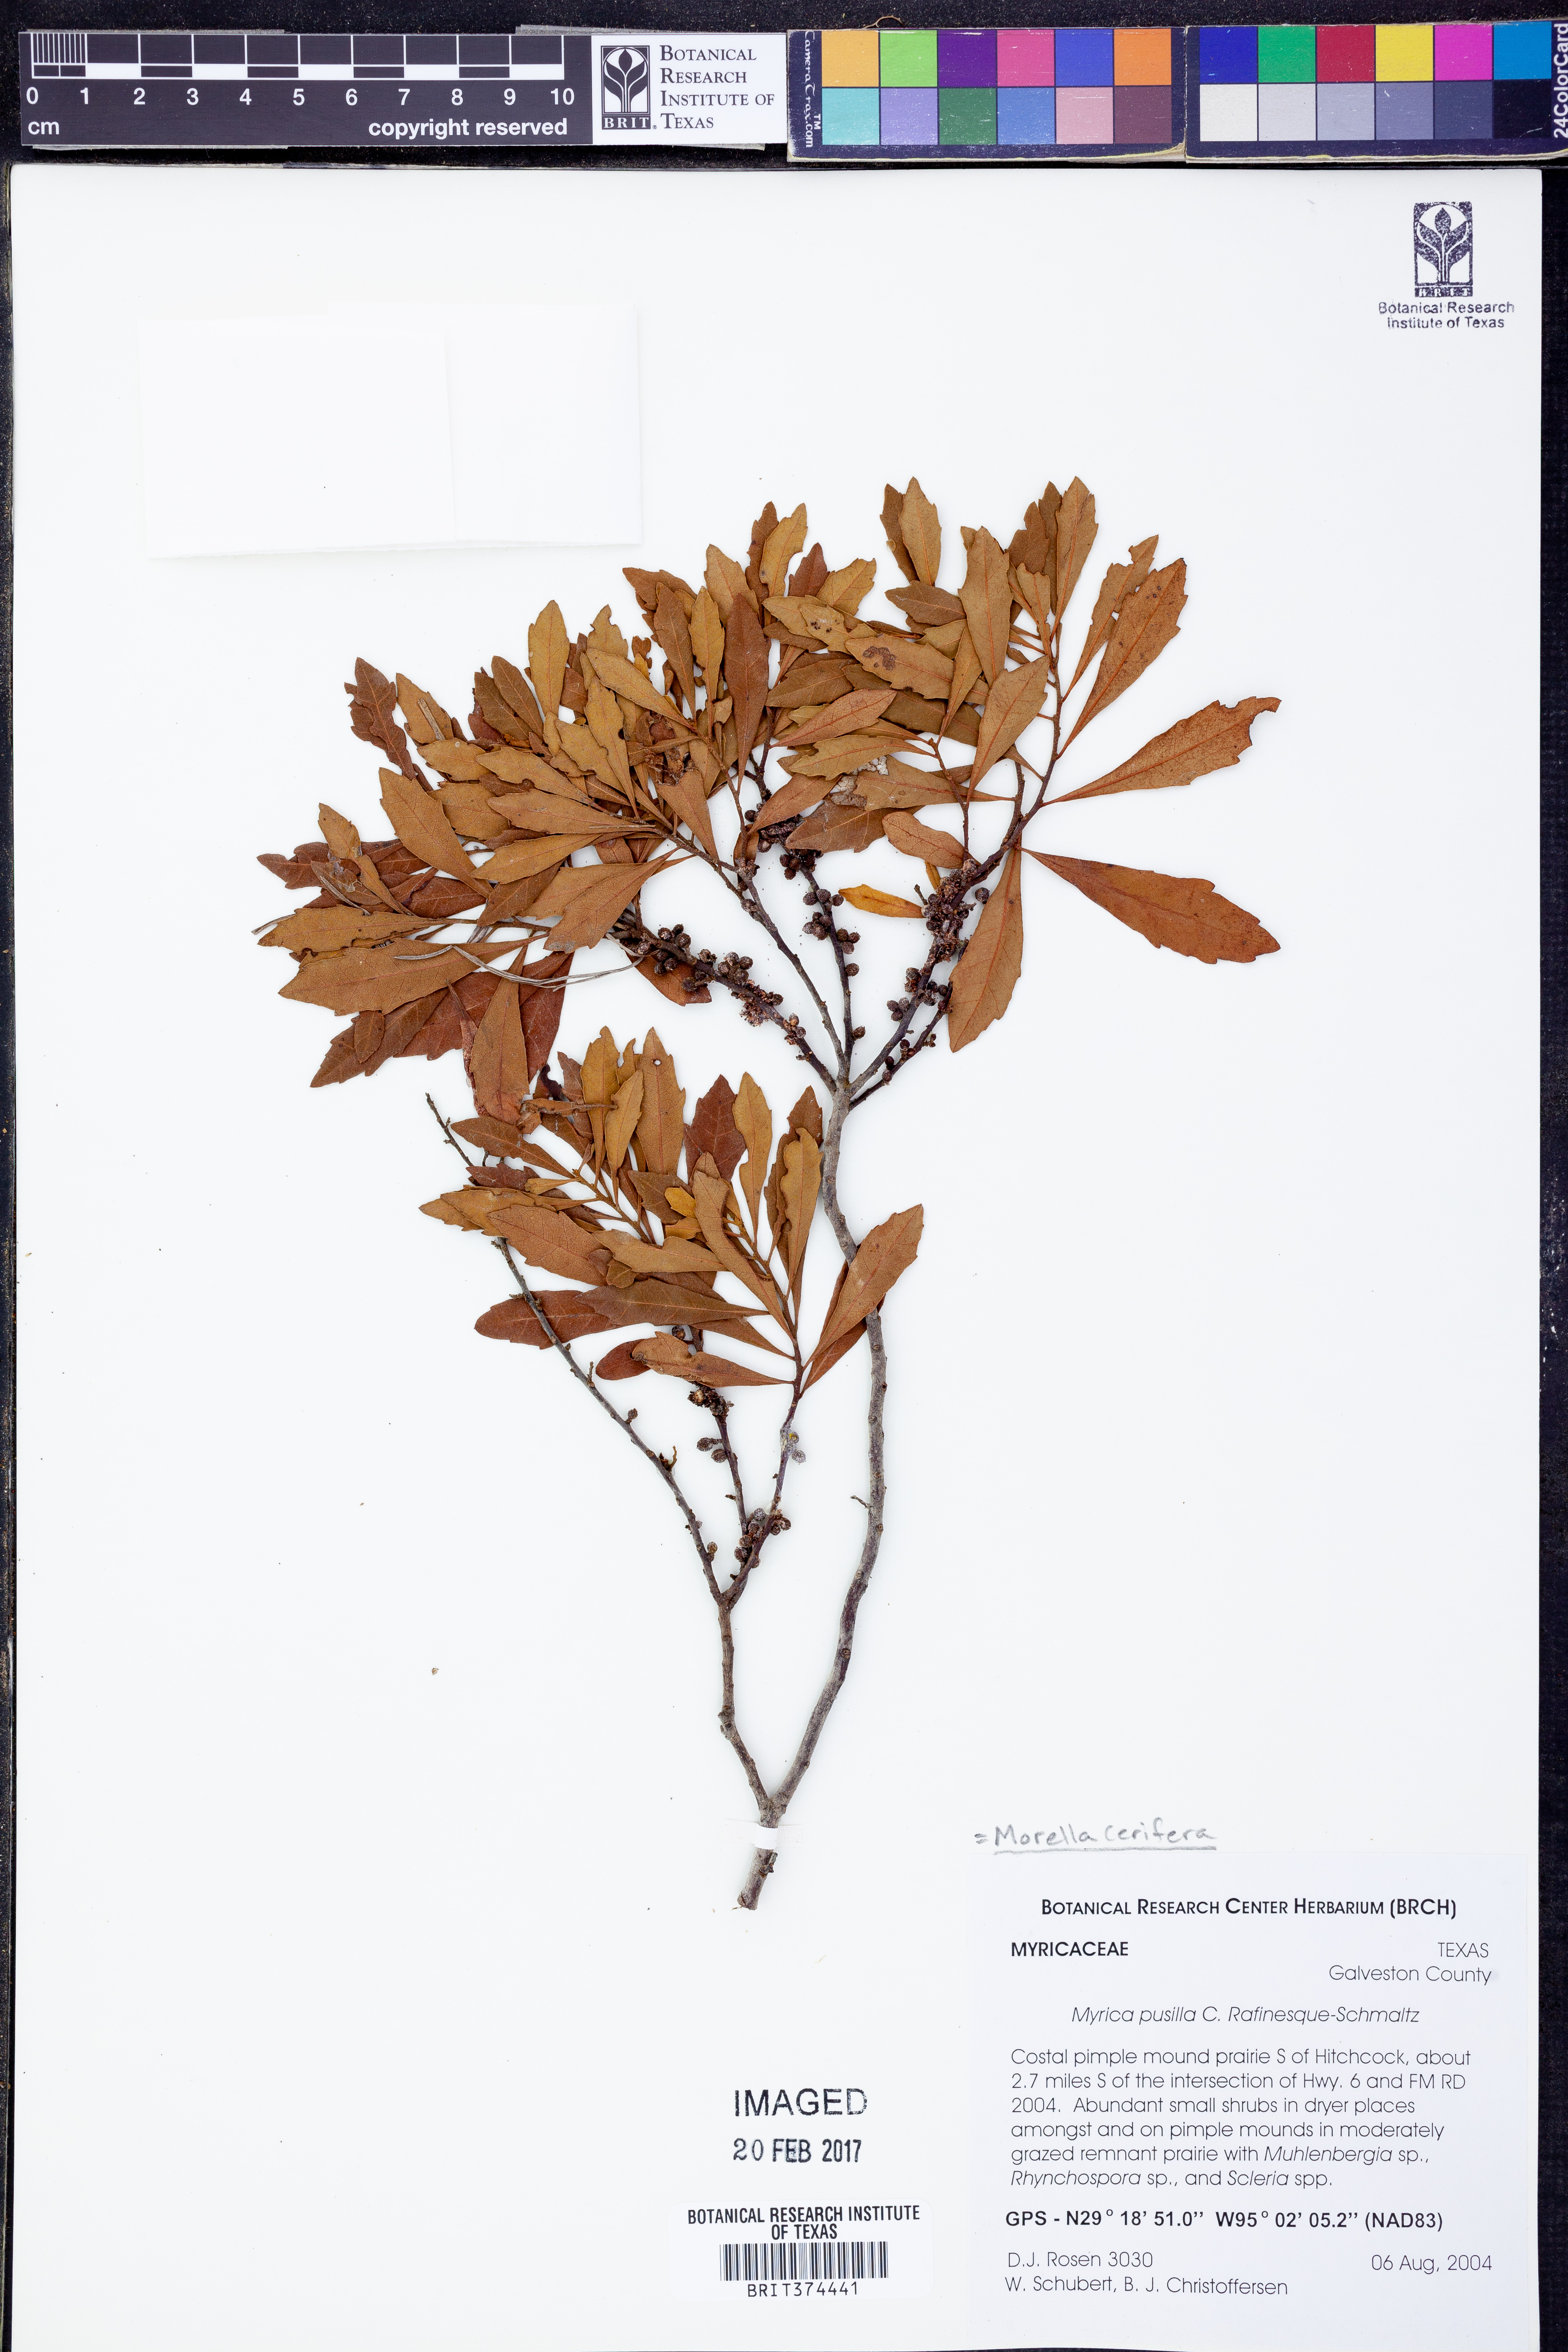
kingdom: Plantae
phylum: Tracheophyta
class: Magnoliopsida
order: Fagales
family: Myricaceae
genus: Morella
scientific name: Morella cerifera
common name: Wax myrtle
